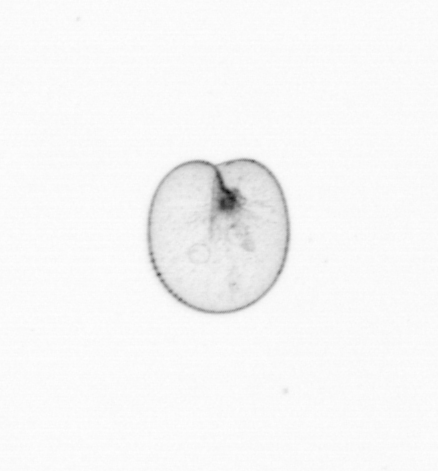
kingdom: Chromista
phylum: Myzozoa
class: Dinophyceae
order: Noctilucales
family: Noctilucaceae
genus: Noctiluca
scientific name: Noctiluca scintillans
